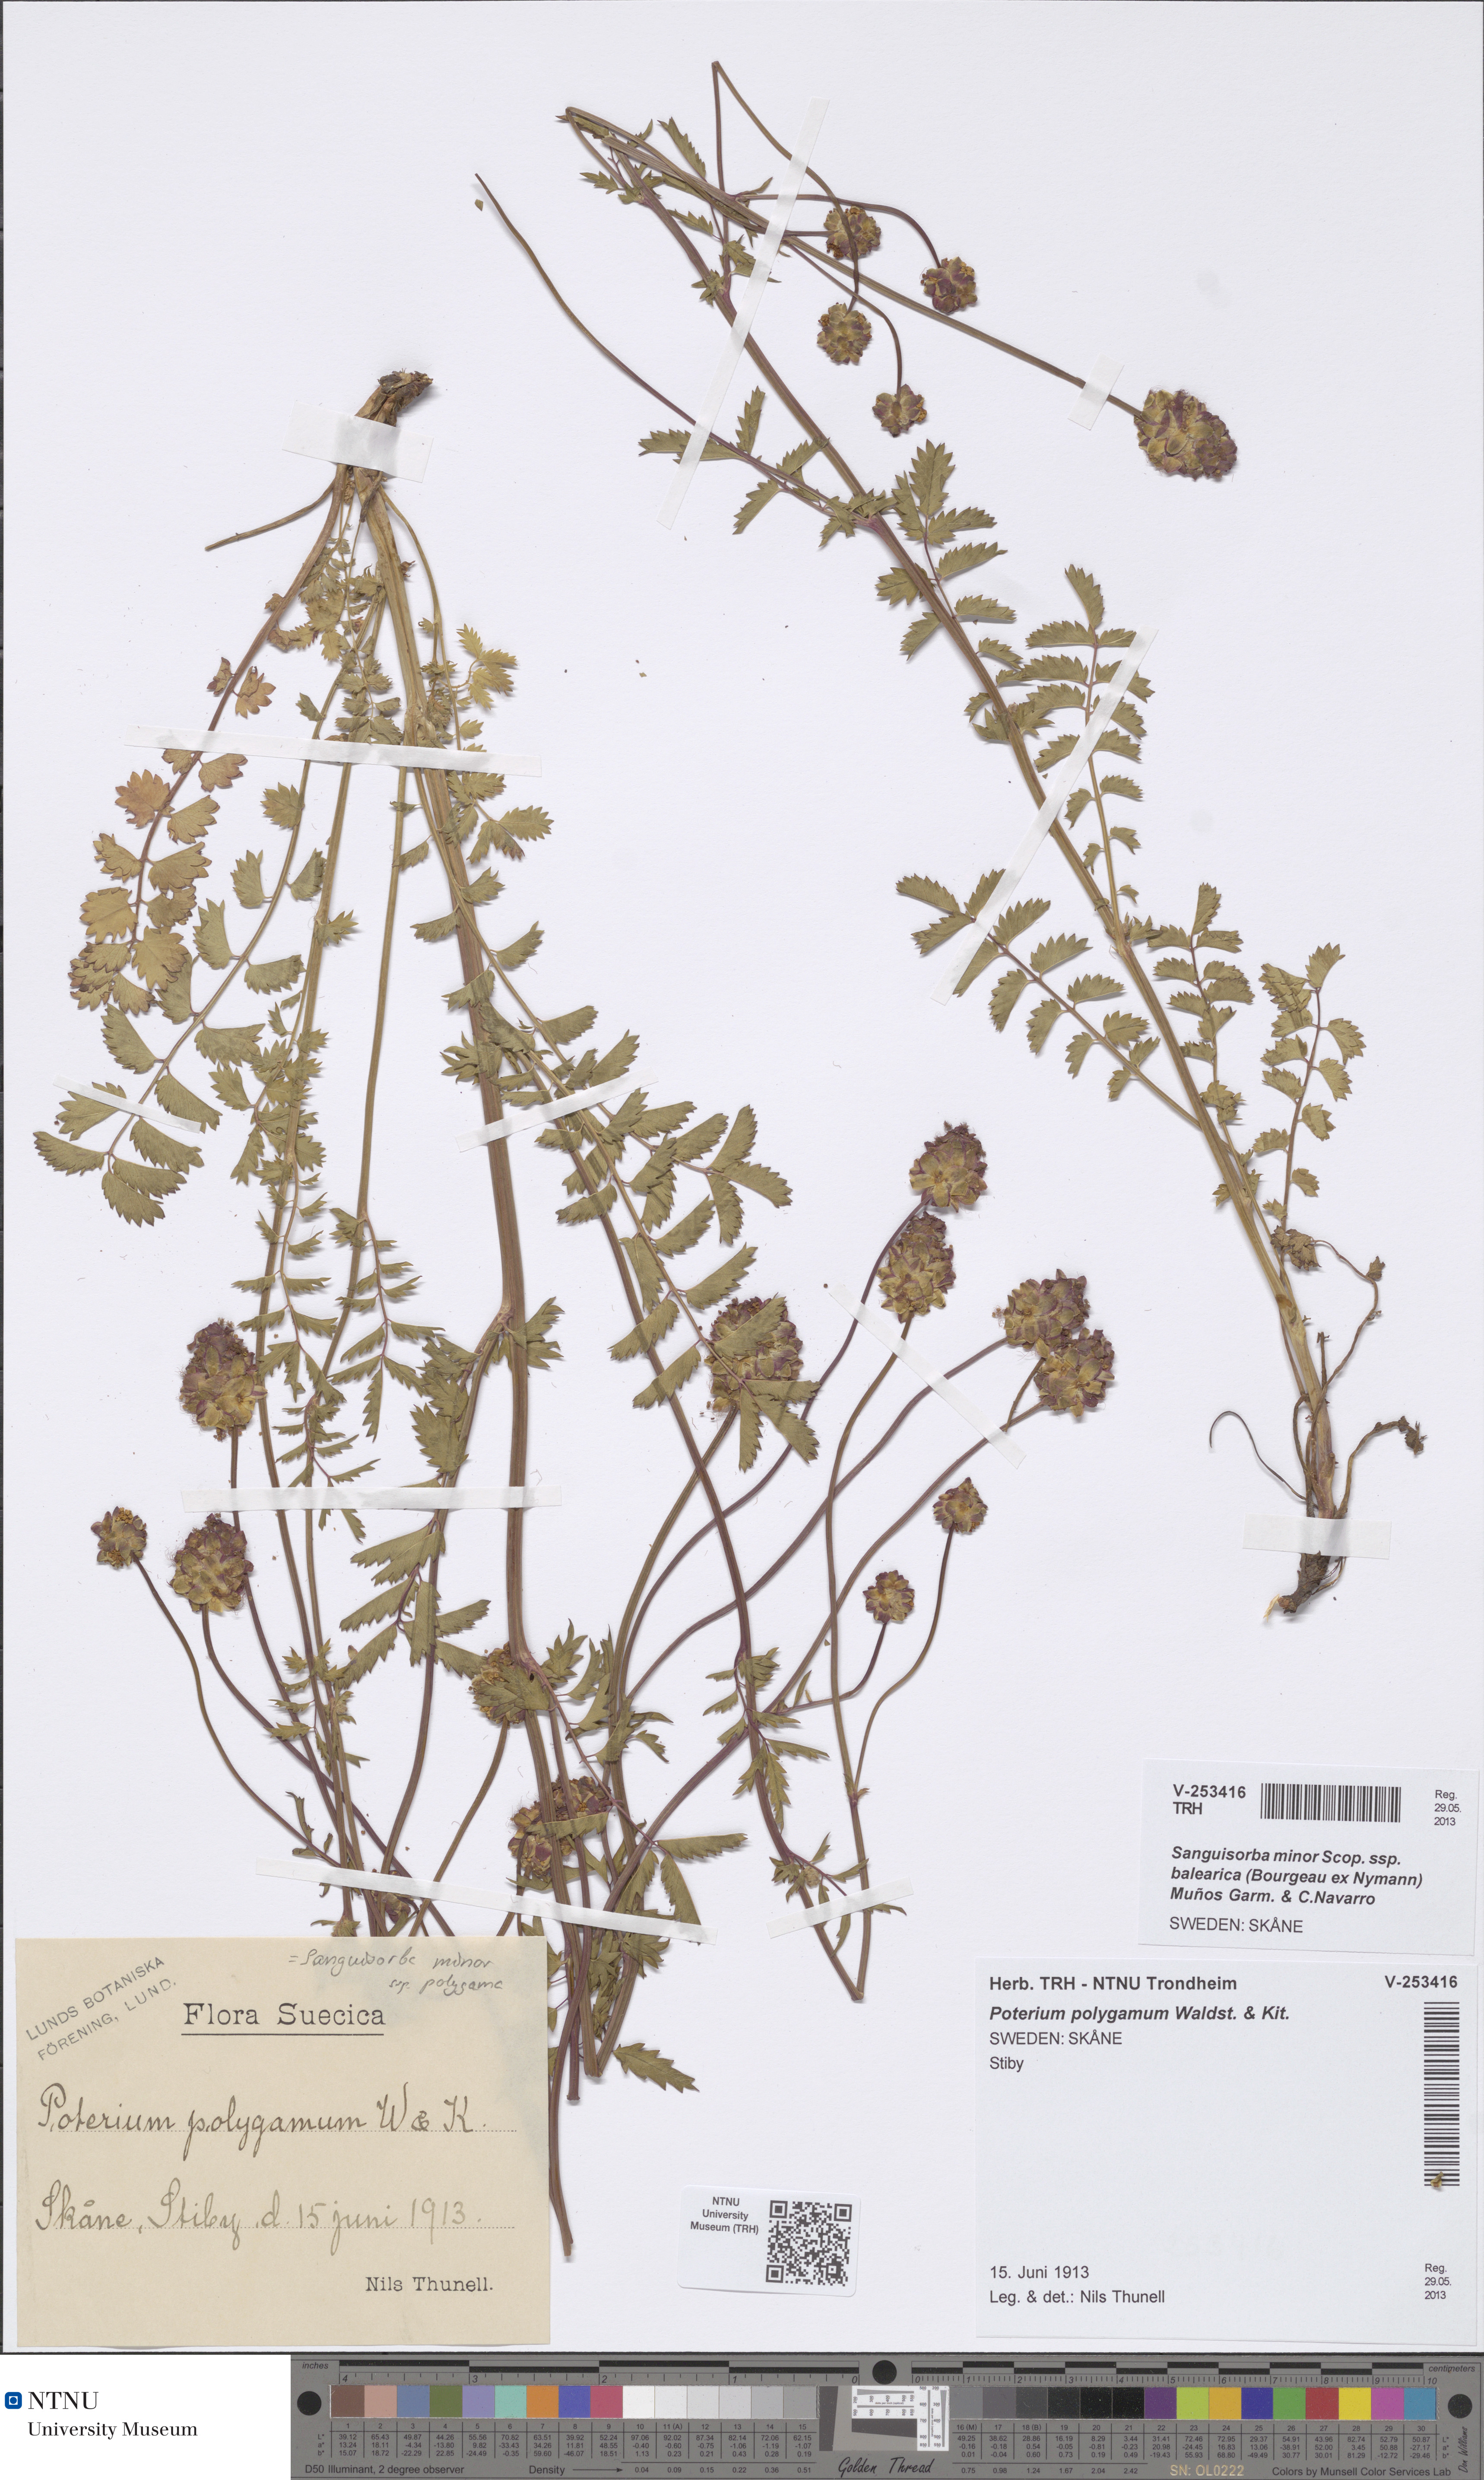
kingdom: Plantae
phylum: Tracheophyta
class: Magnoliopsida
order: Rosales
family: Rosaceae
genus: Poterium
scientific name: Poterium sanguisorba
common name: Salad burnet
